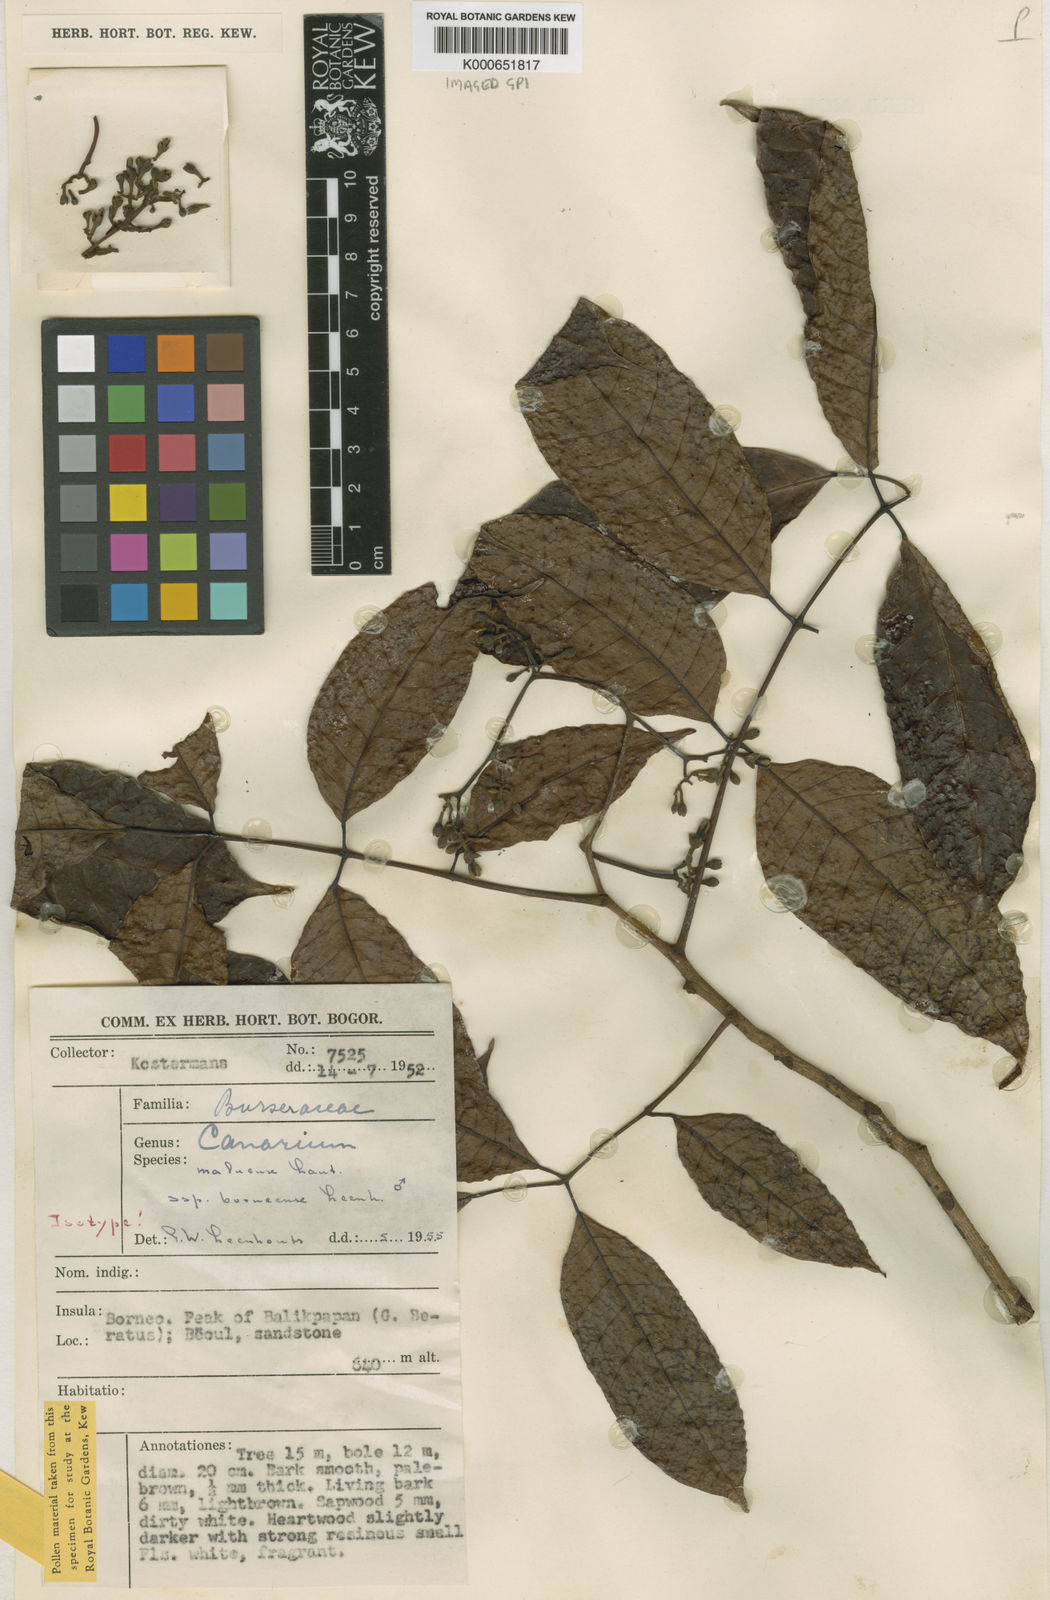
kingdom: Plantae
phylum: Tracheophyta
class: Magnoliopsida
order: Sapindales
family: Burseraceae
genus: Canarium
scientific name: Canarium maluense
